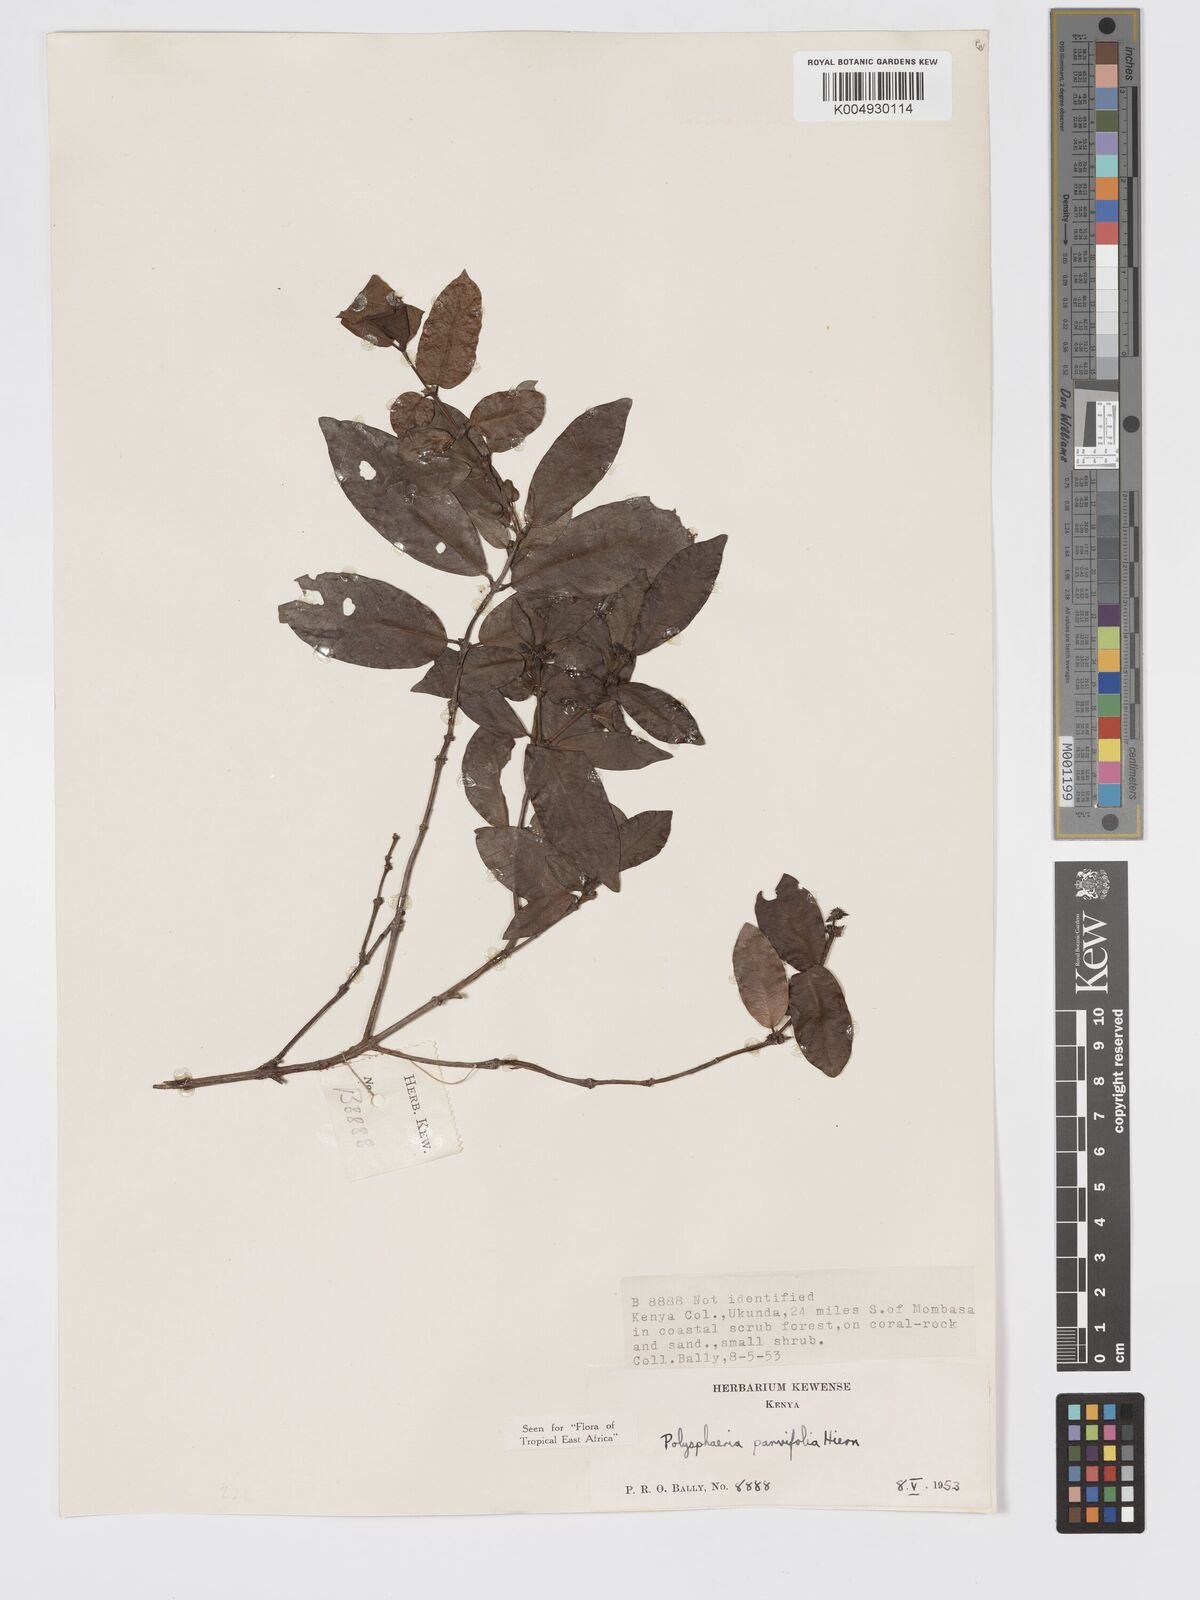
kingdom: Plantae
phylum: Tracheophyta
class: Magnoliopsida
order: Gentianales
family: Rubiaceae
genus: Polysphaeria
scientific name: Polysphaeria parvifolia
